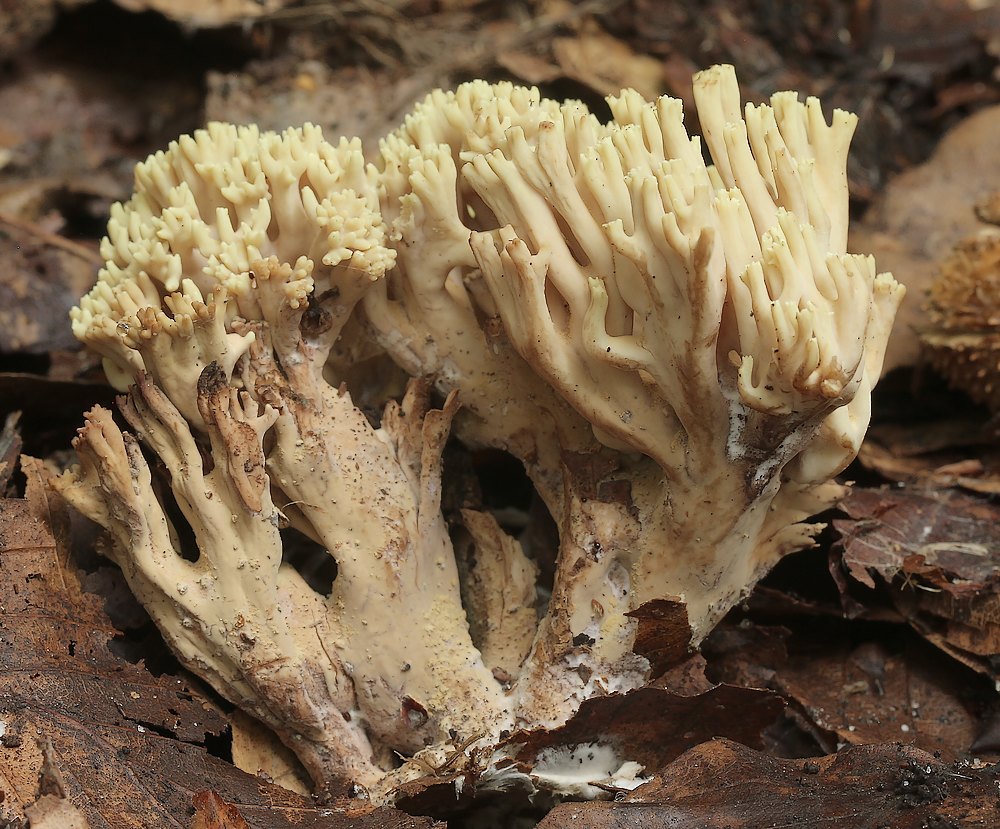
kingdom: Fungi
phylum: Basidiomycota
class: Agaricomycetes
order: Gomphales
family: Gomphaceae
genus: Ramaria
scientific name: Ramaria stricta
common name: rank koralsvamp
